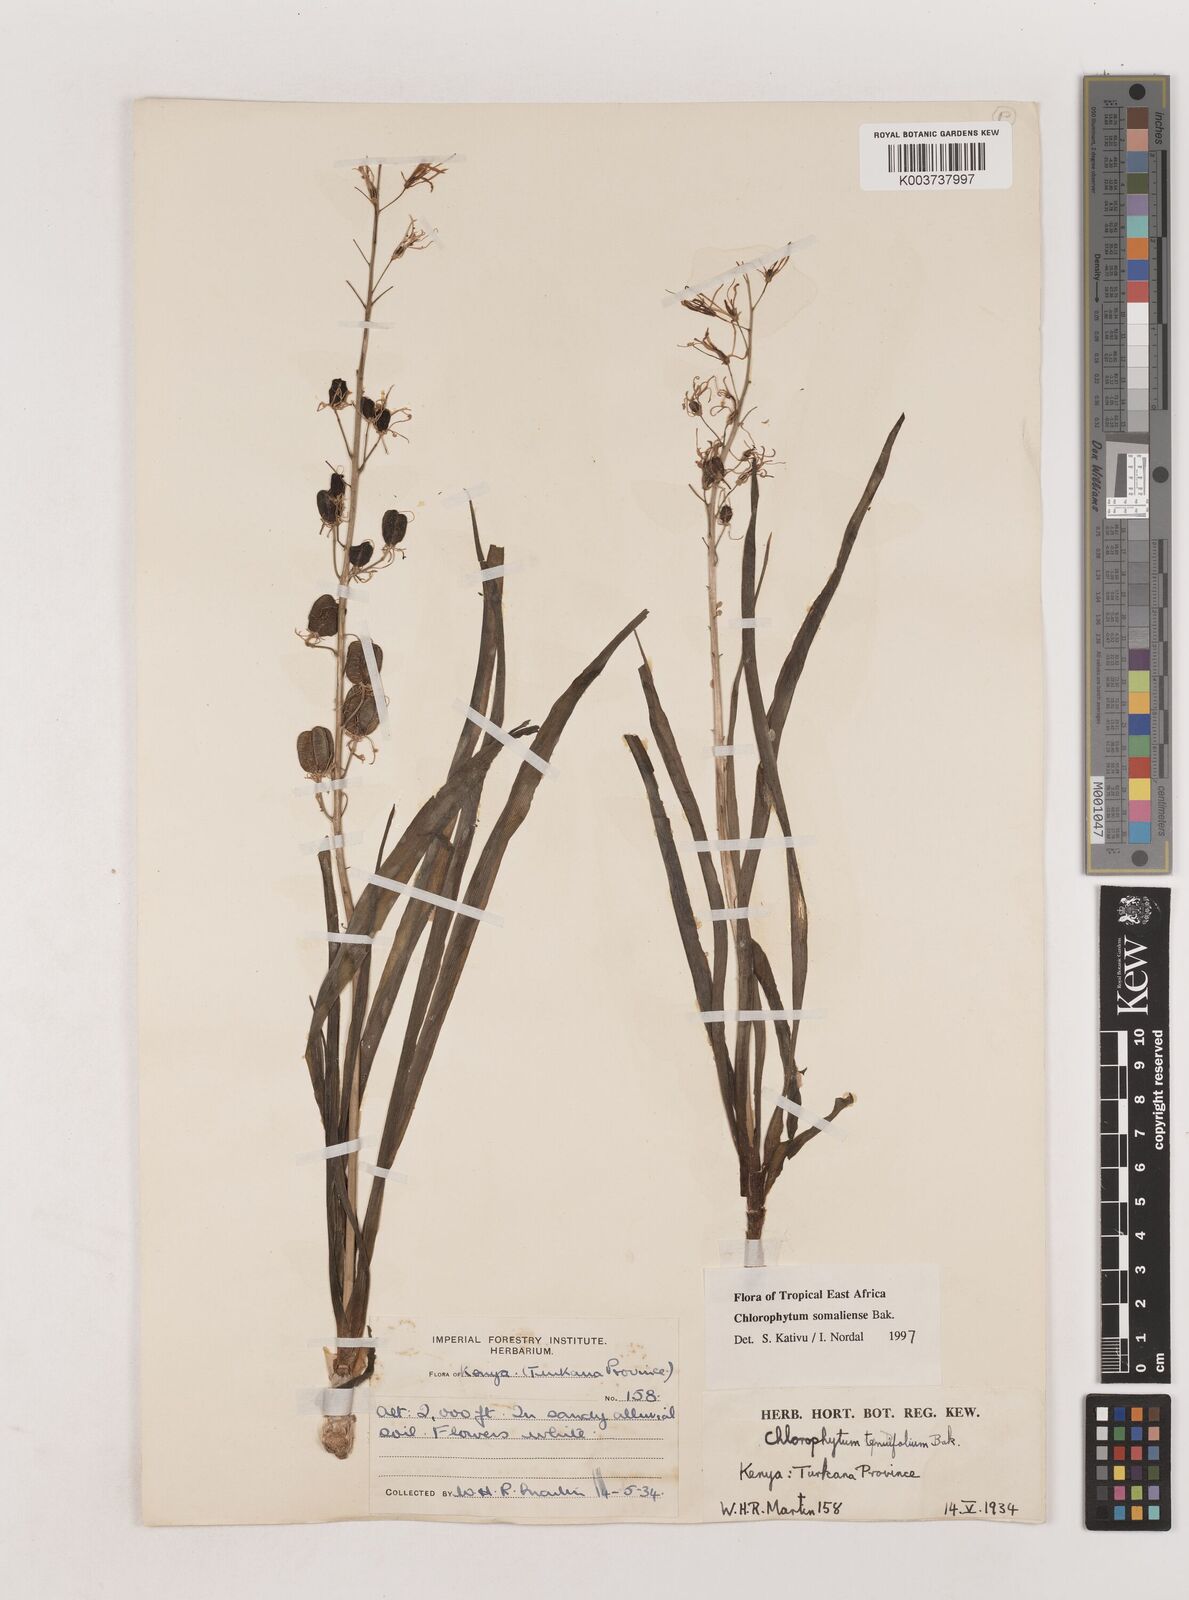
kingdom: Plantae
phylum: Tracheophyta
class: Liliopsida
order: Asparagales
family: Asparagaceae
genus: Chlorophytum
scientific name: Chlorophytum somaliense
